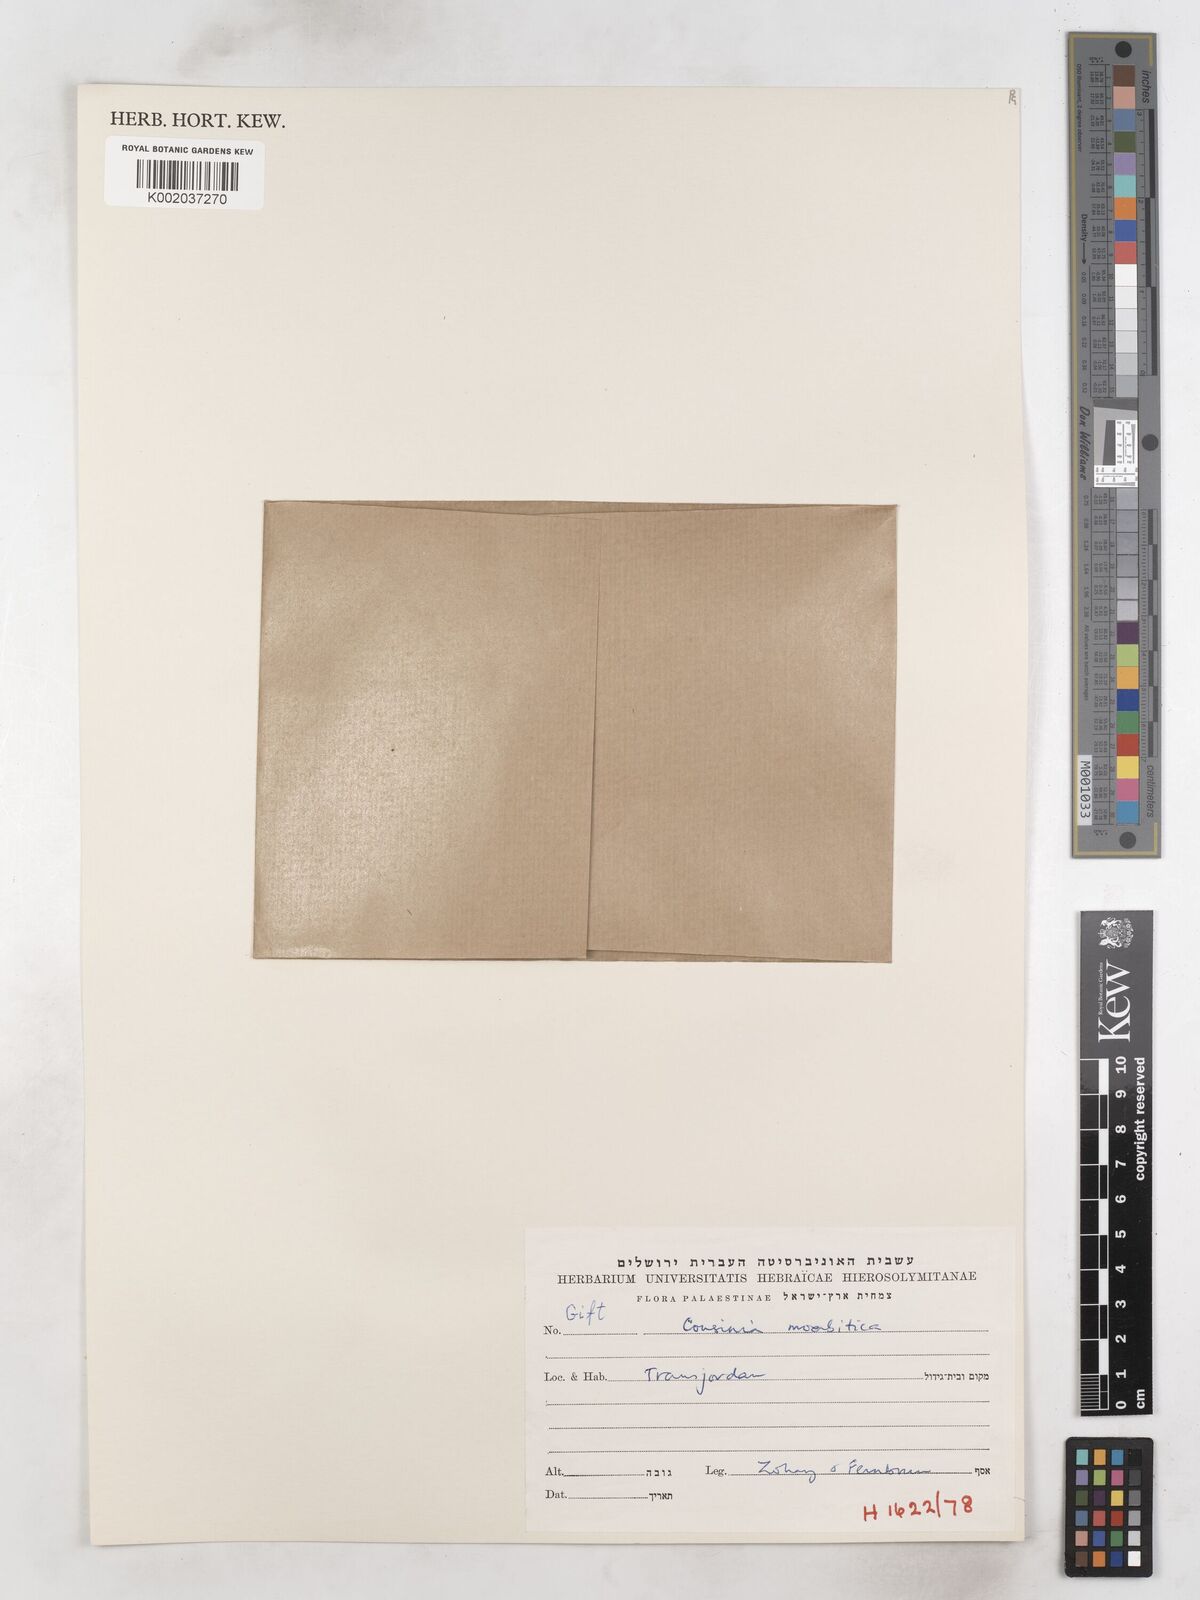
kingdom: Plantae
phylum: Tracheophyta
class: Magnoliopsida
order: Asterales
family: Asteraceae
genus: Cousinia
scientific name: Cousinia moabitica
